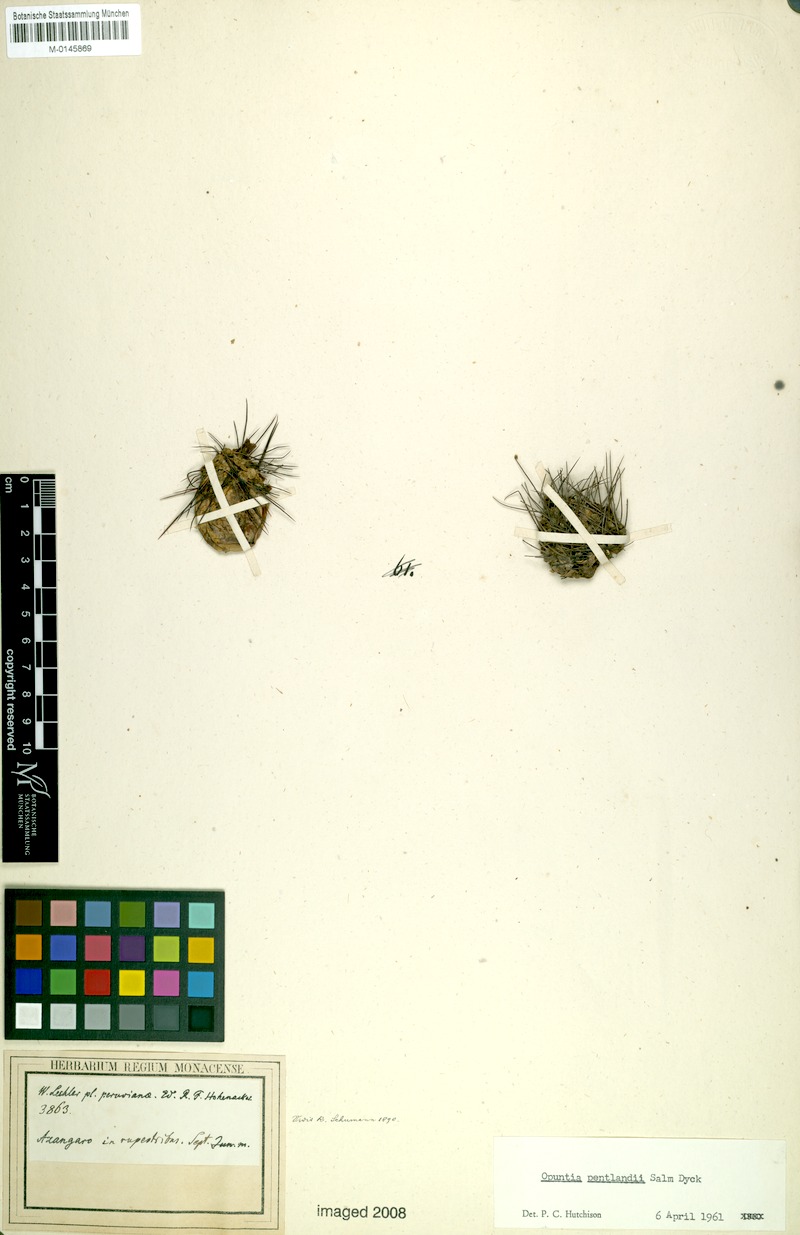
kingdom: Plantae
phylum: Tracheophyta
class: Magnoliopsida
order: Caryophyllales
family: Cactaceae
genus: Cumulopuntia
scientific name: Cumulopuntia boliviana
